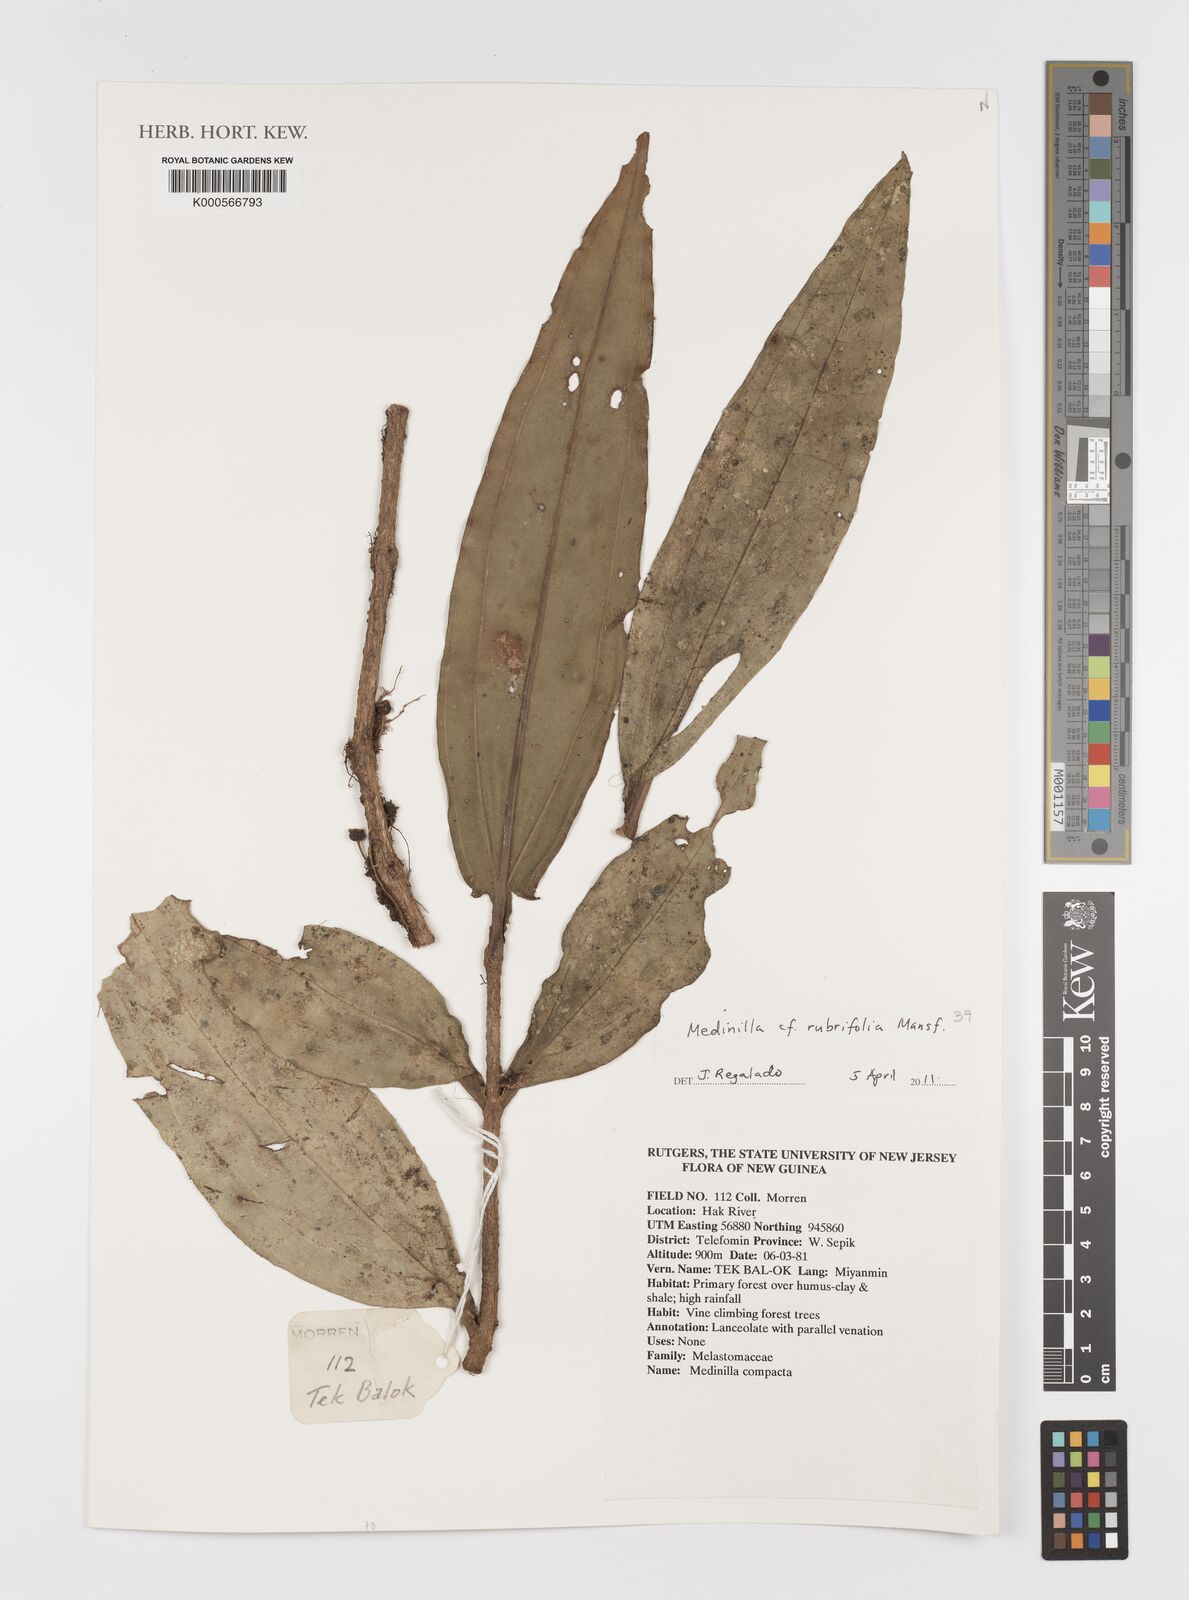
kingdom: Plantae
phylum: Tracheophyta
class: Magnoliopsida
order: Myrtales
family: Melastomataceae
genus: Medinilla
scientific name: Medinilla rubrifolia
